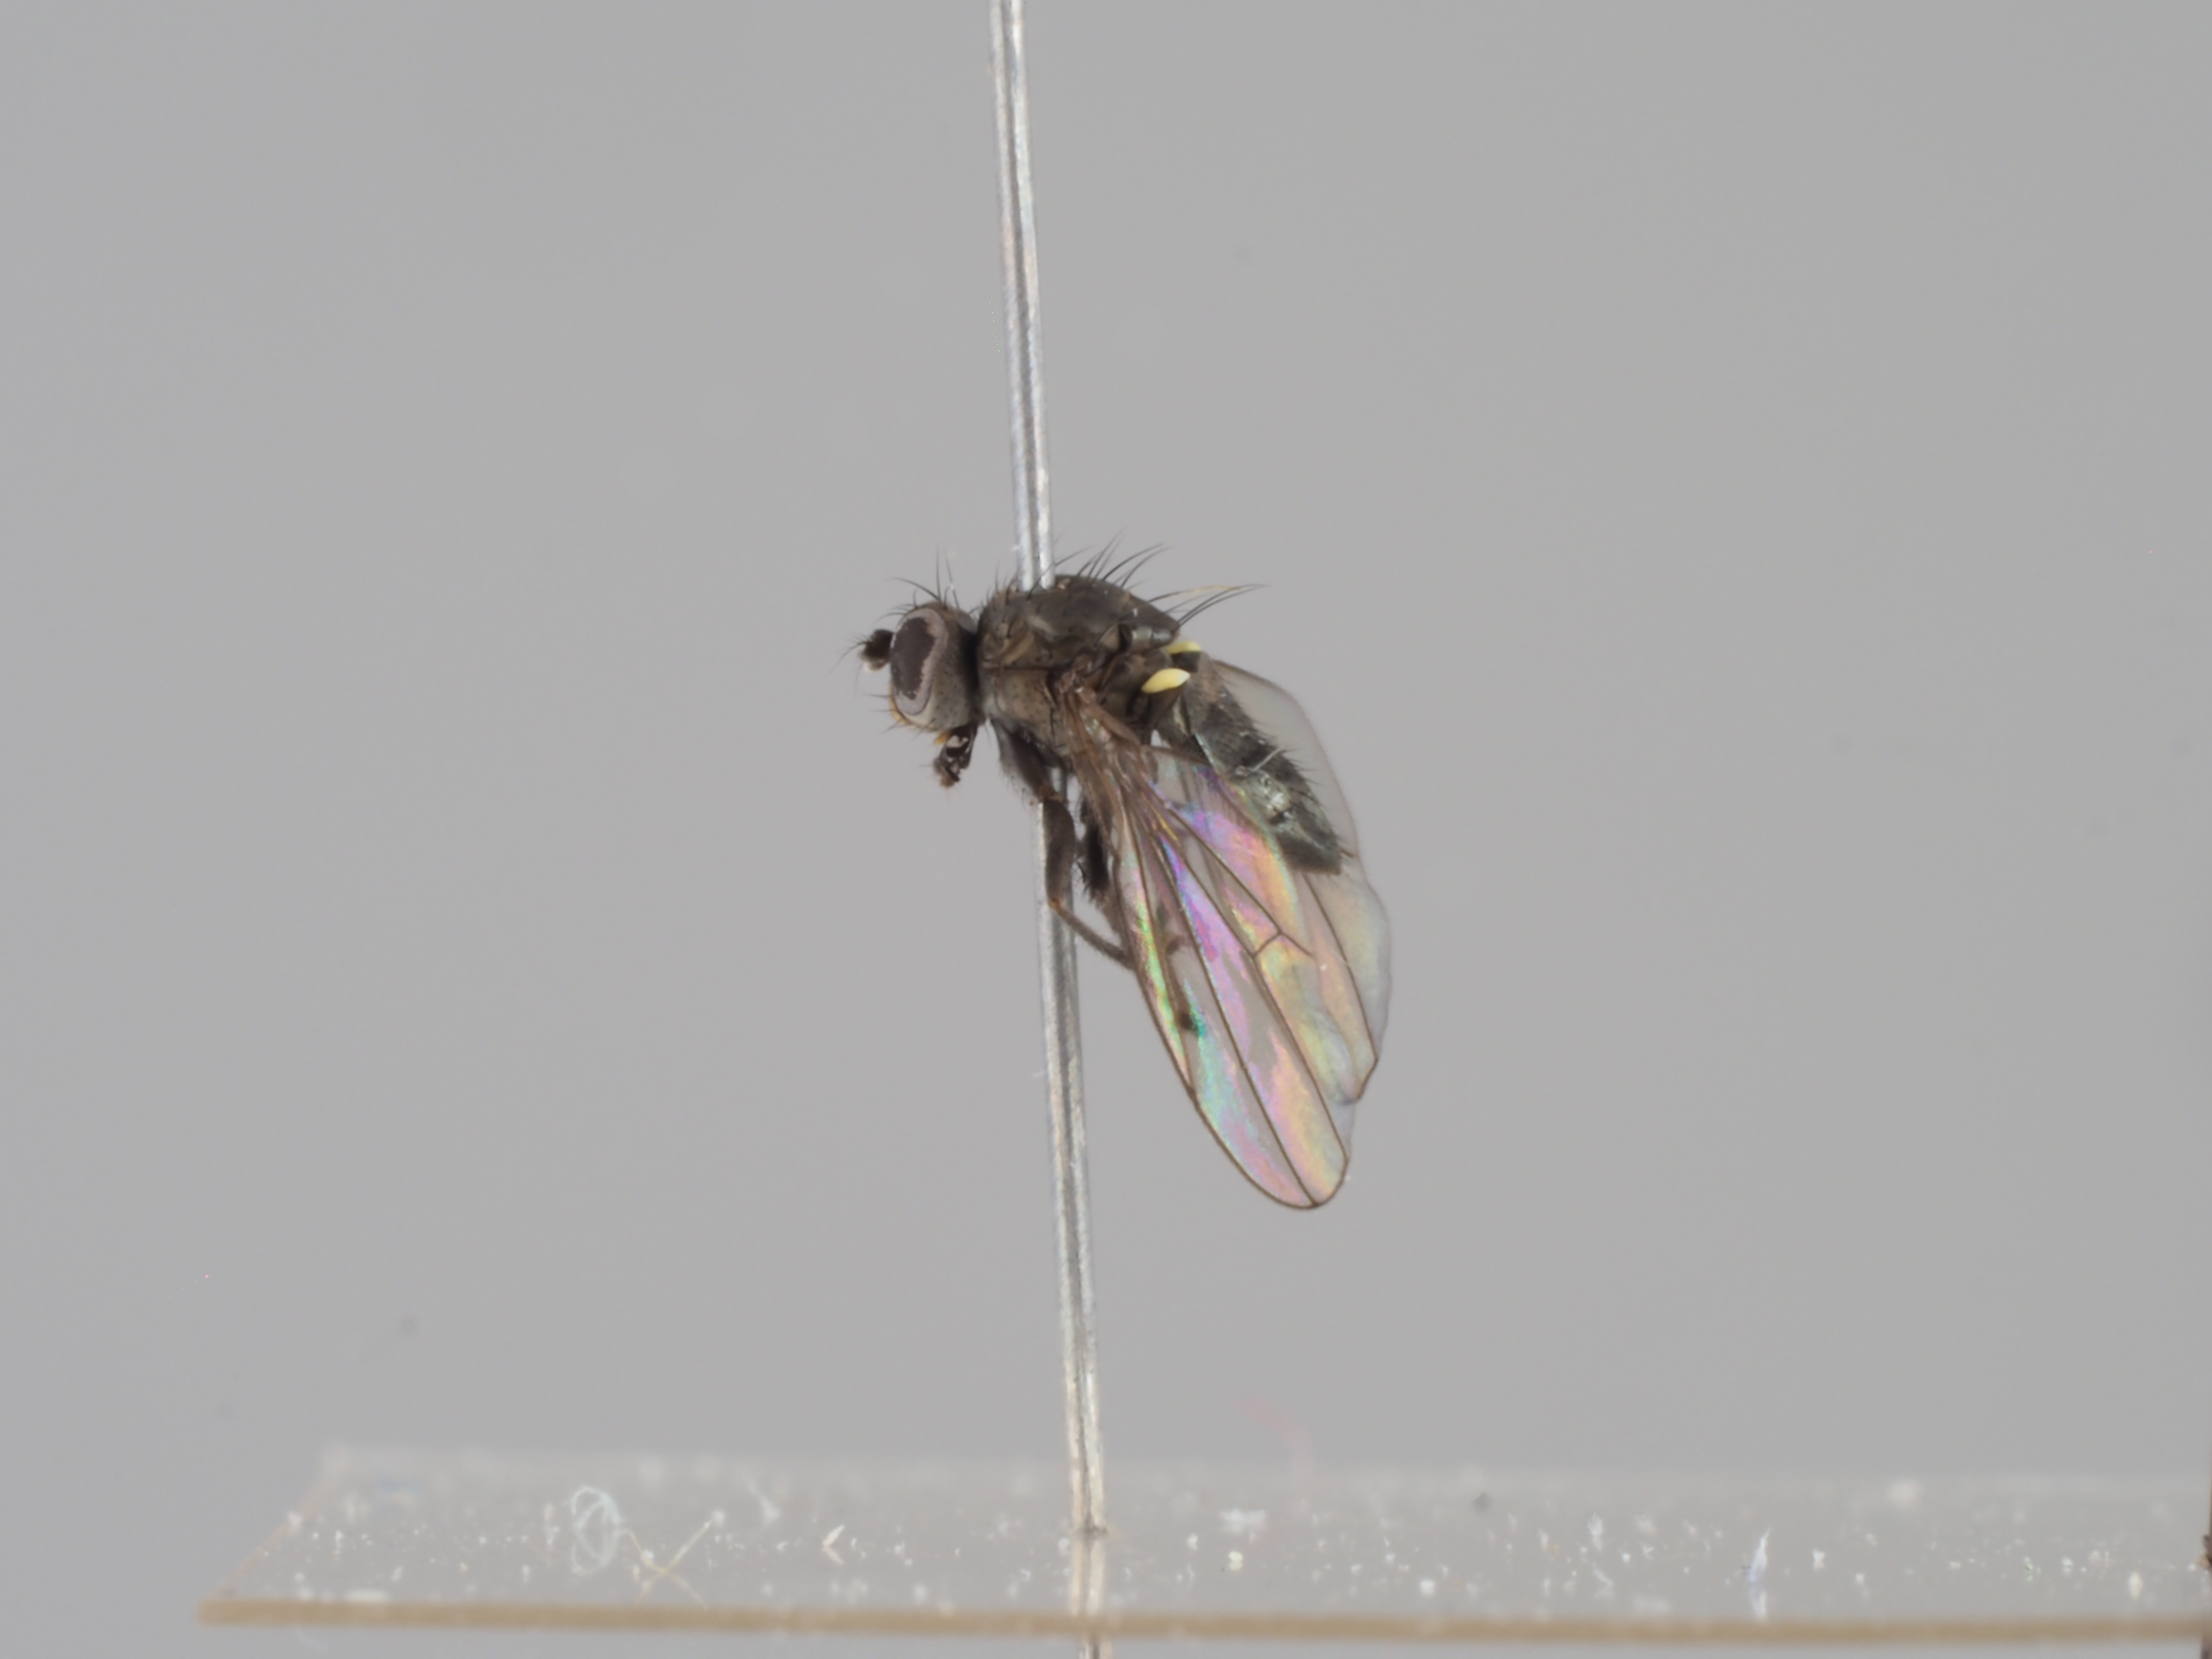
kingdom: Animalia
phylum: Arthropoda
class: Insecta
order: Diptera
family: Ephydridae
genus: Hydrellia
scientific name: Hydrellia caledonica
